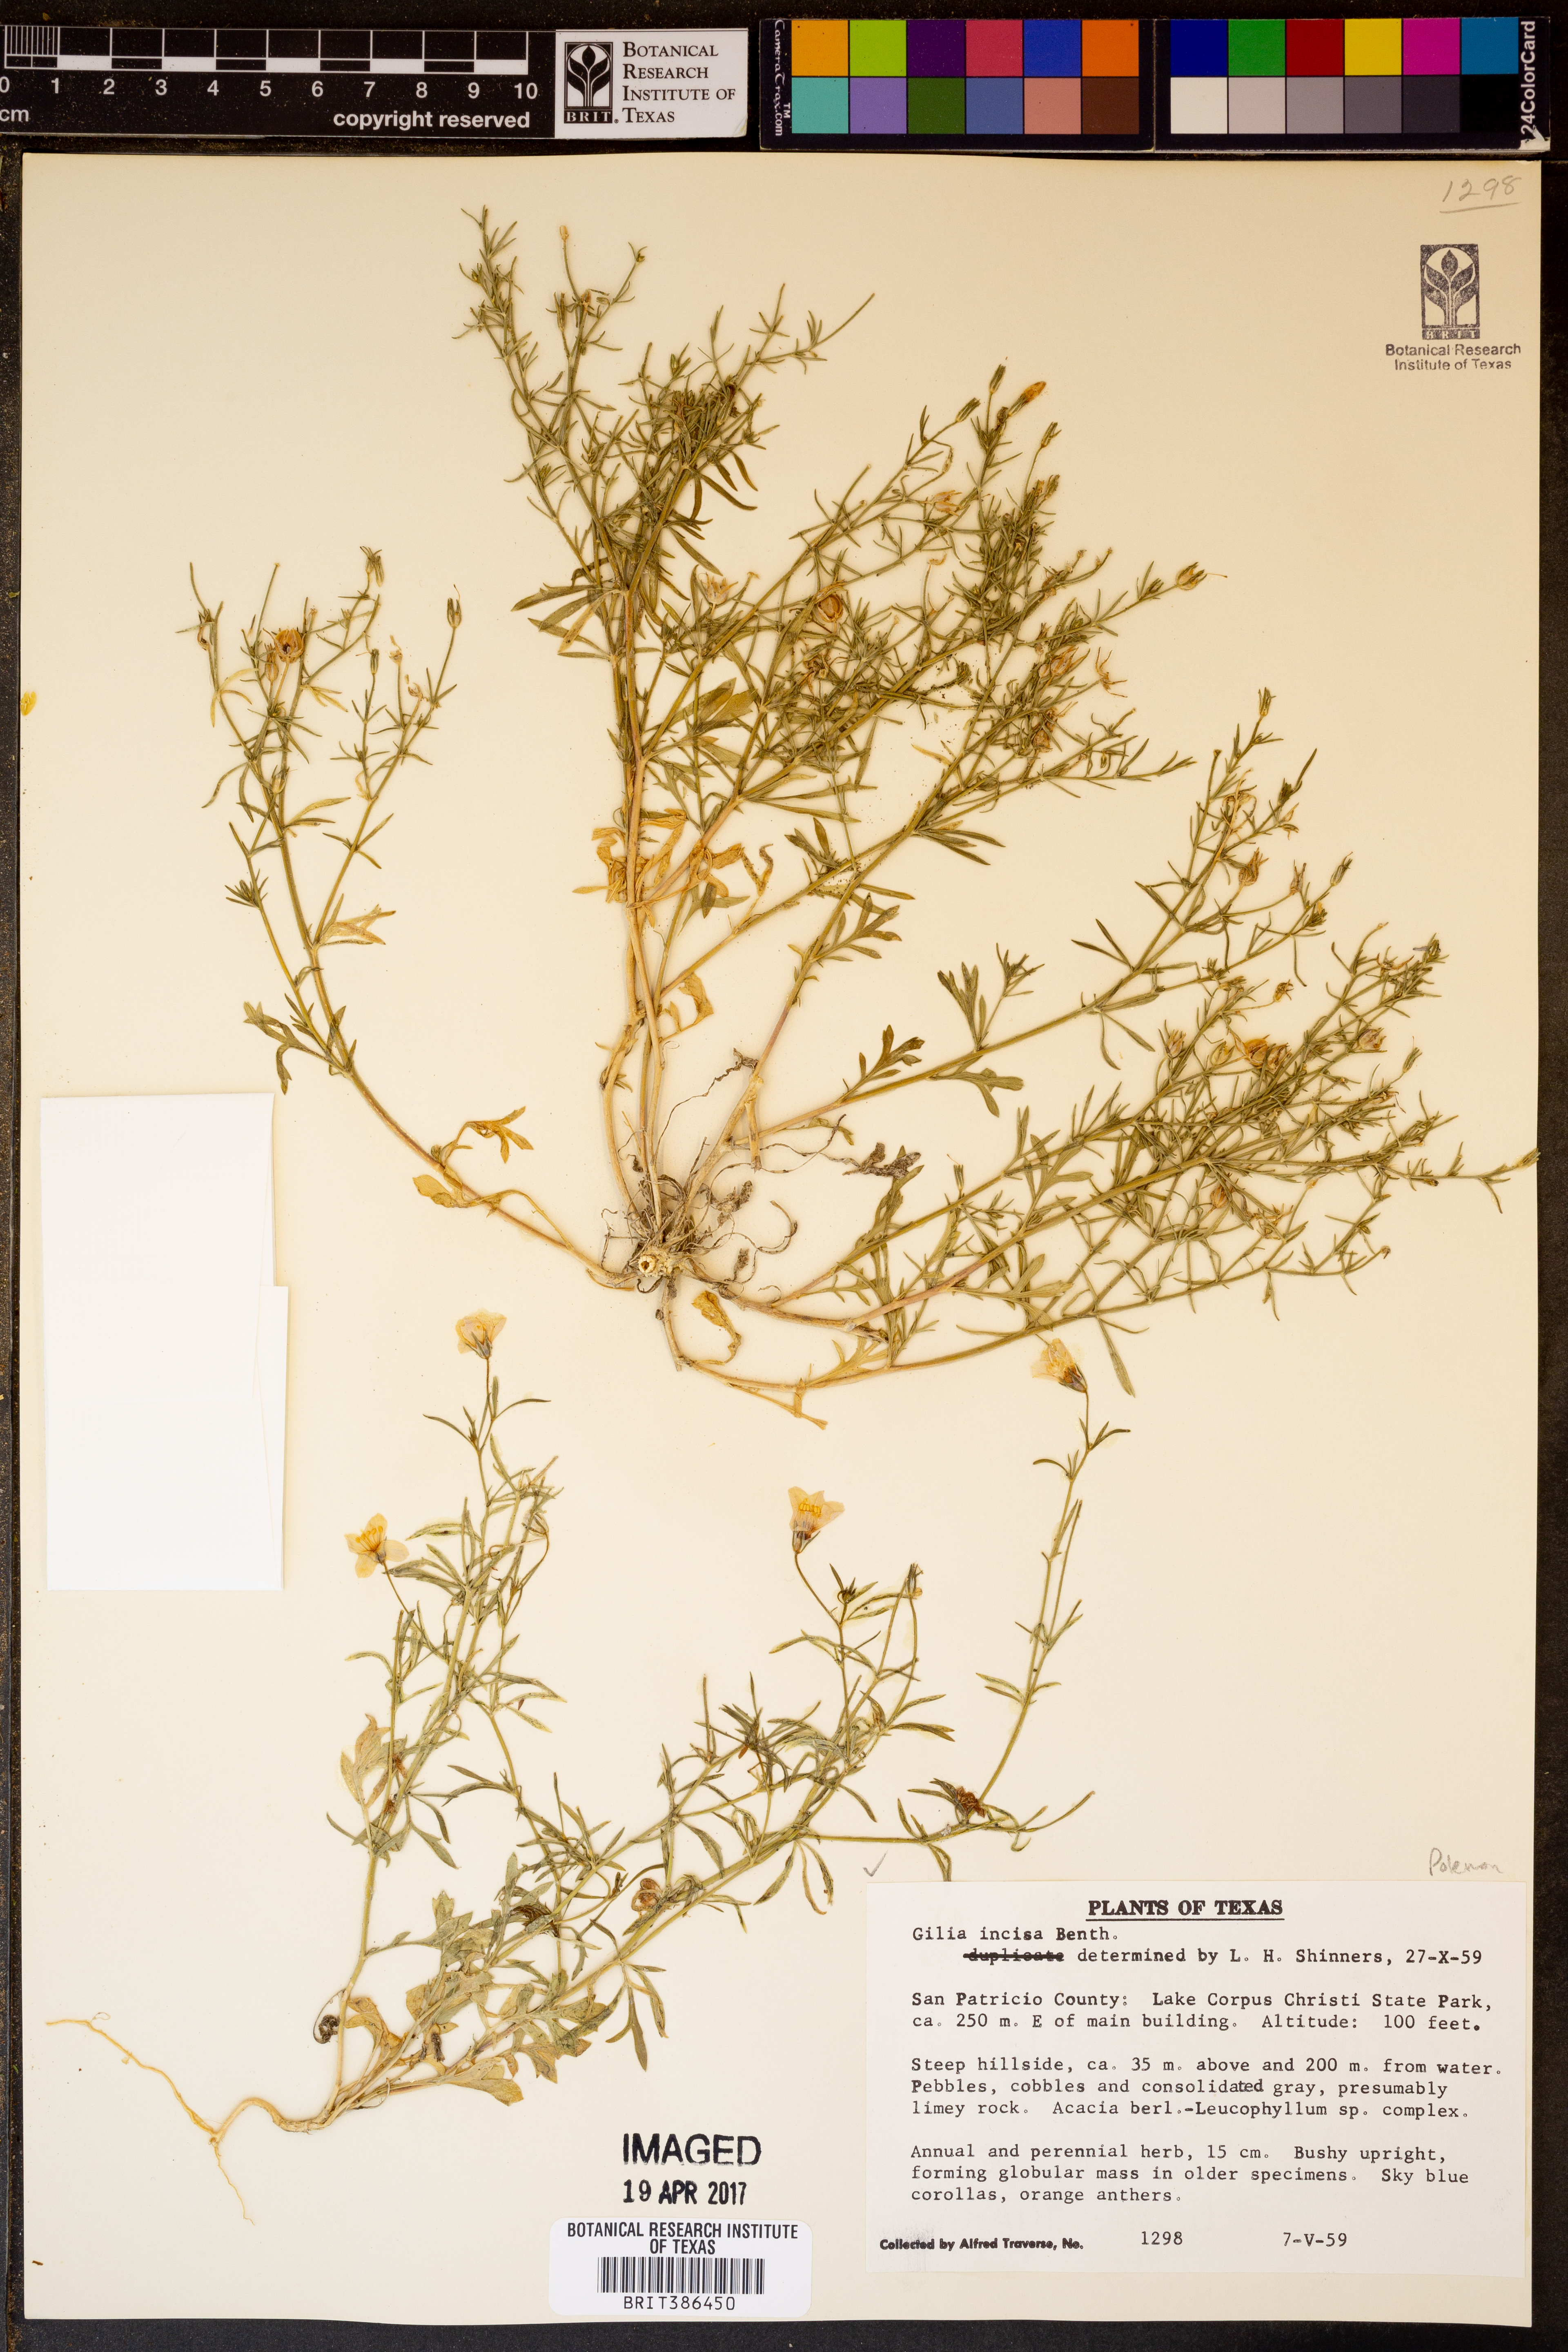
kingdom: Plantae
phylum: Tracheophyta
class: Magnoliopsida
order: Ericales
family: Polemoniaceae
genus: Giliastrum
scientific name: Giliastrum incisum
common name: Splitleaf gilia
